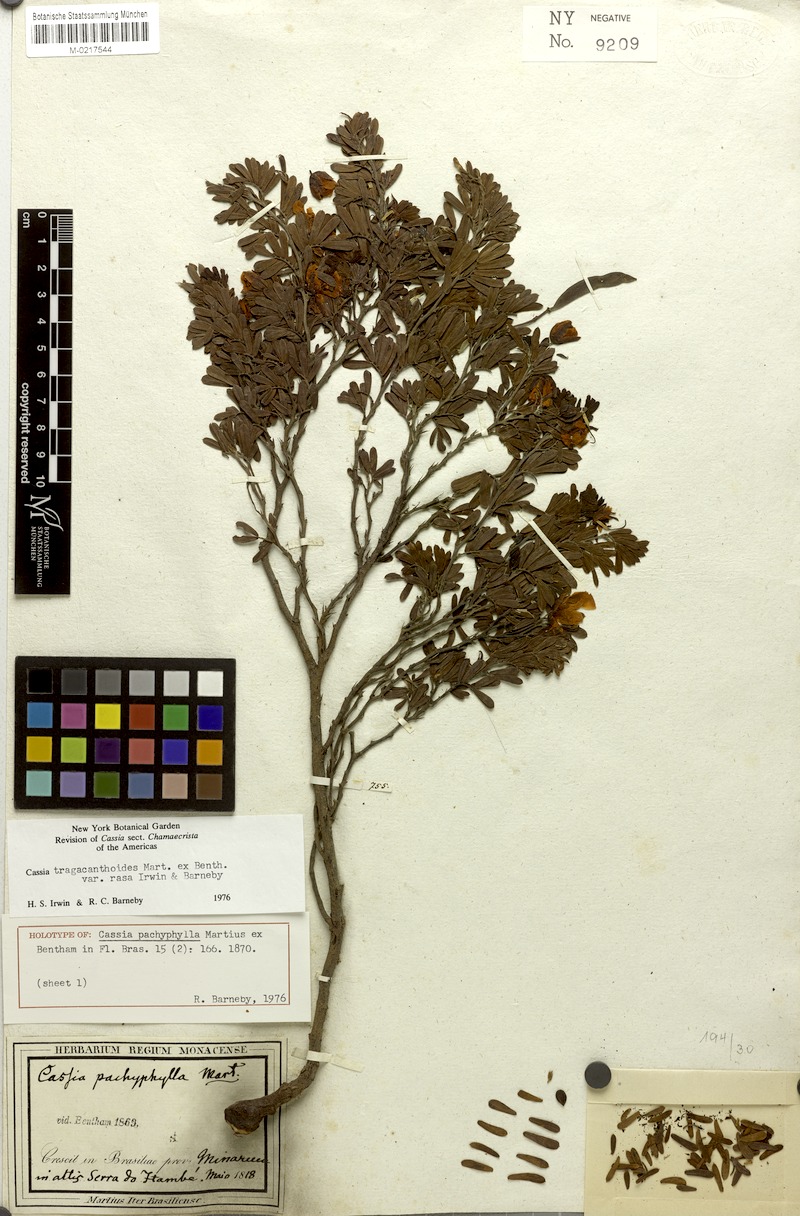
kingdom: Plantae
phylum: Tracheophyta
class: Magnoliopsida
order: Fabales
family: Fabaceae
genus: Chamaecrista
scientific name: Chamaecrista tragacanthoides
